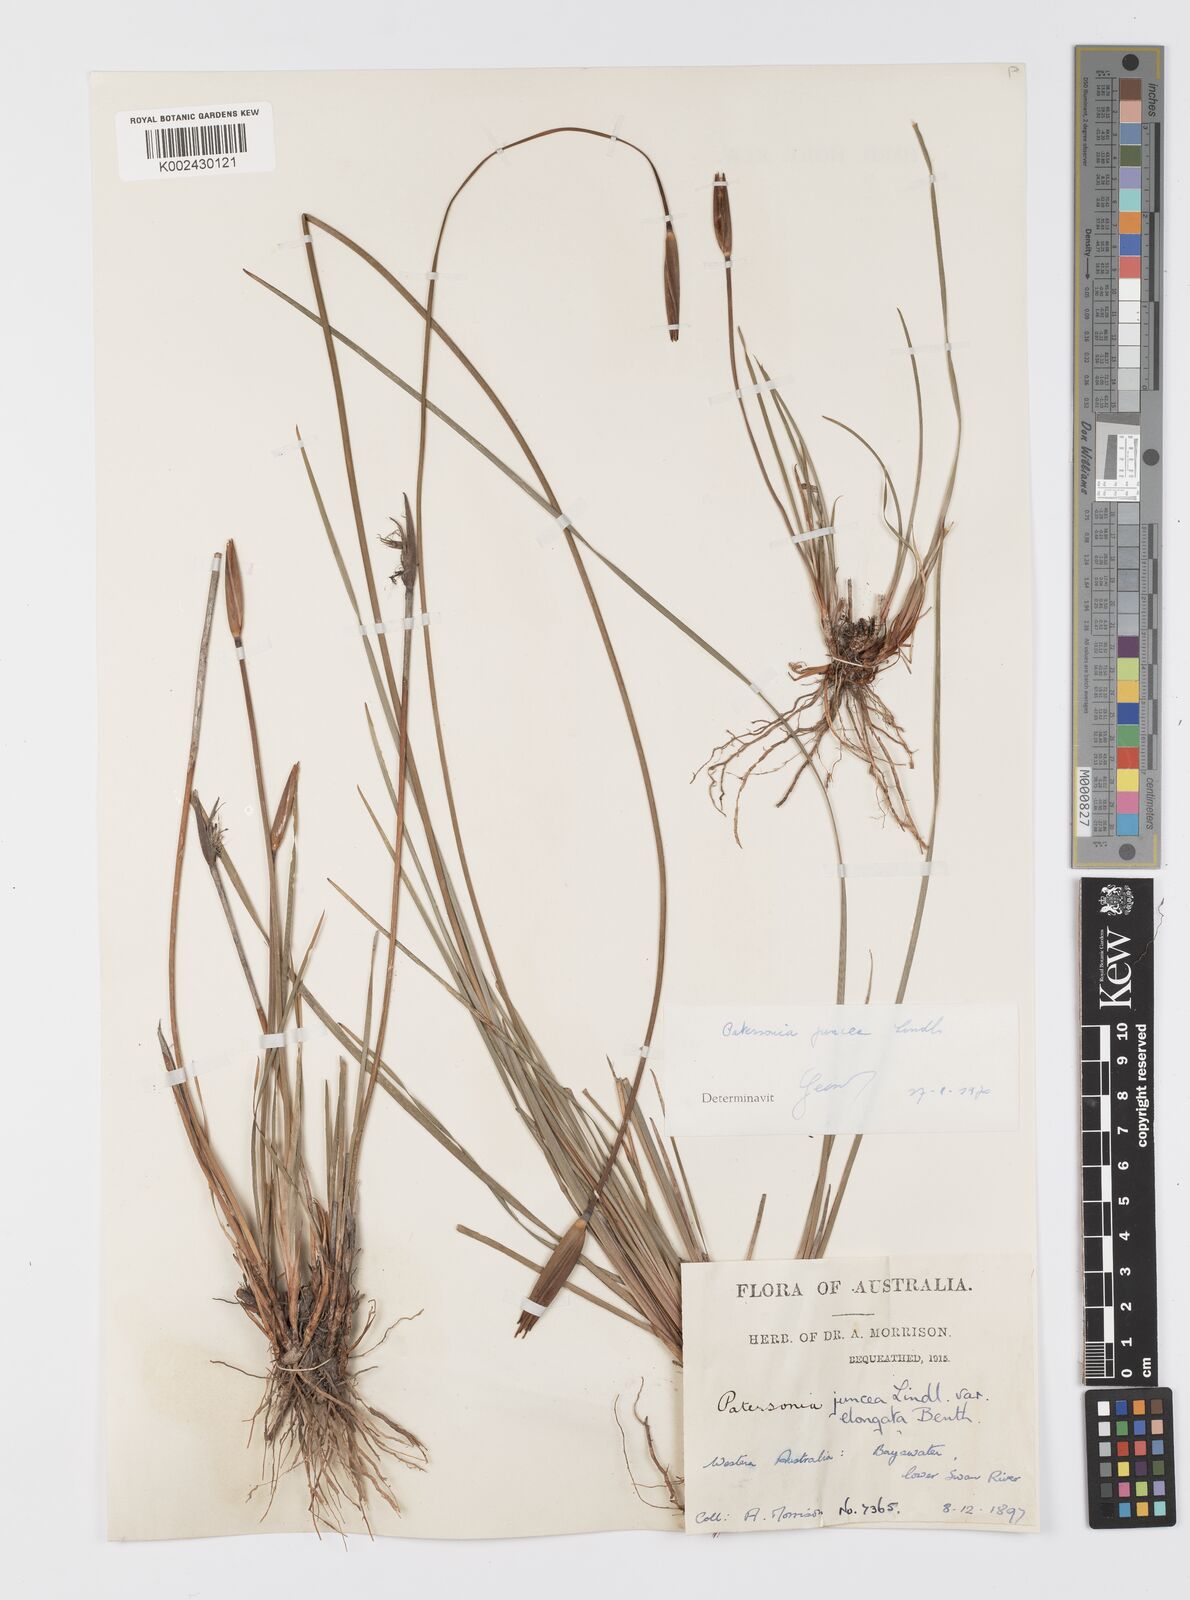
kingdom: Plantae
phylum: Tracheophyta
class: Liliopsida
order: Asparagales
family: Iridaceae
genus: Patersonia
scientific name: Patersonia juncea
